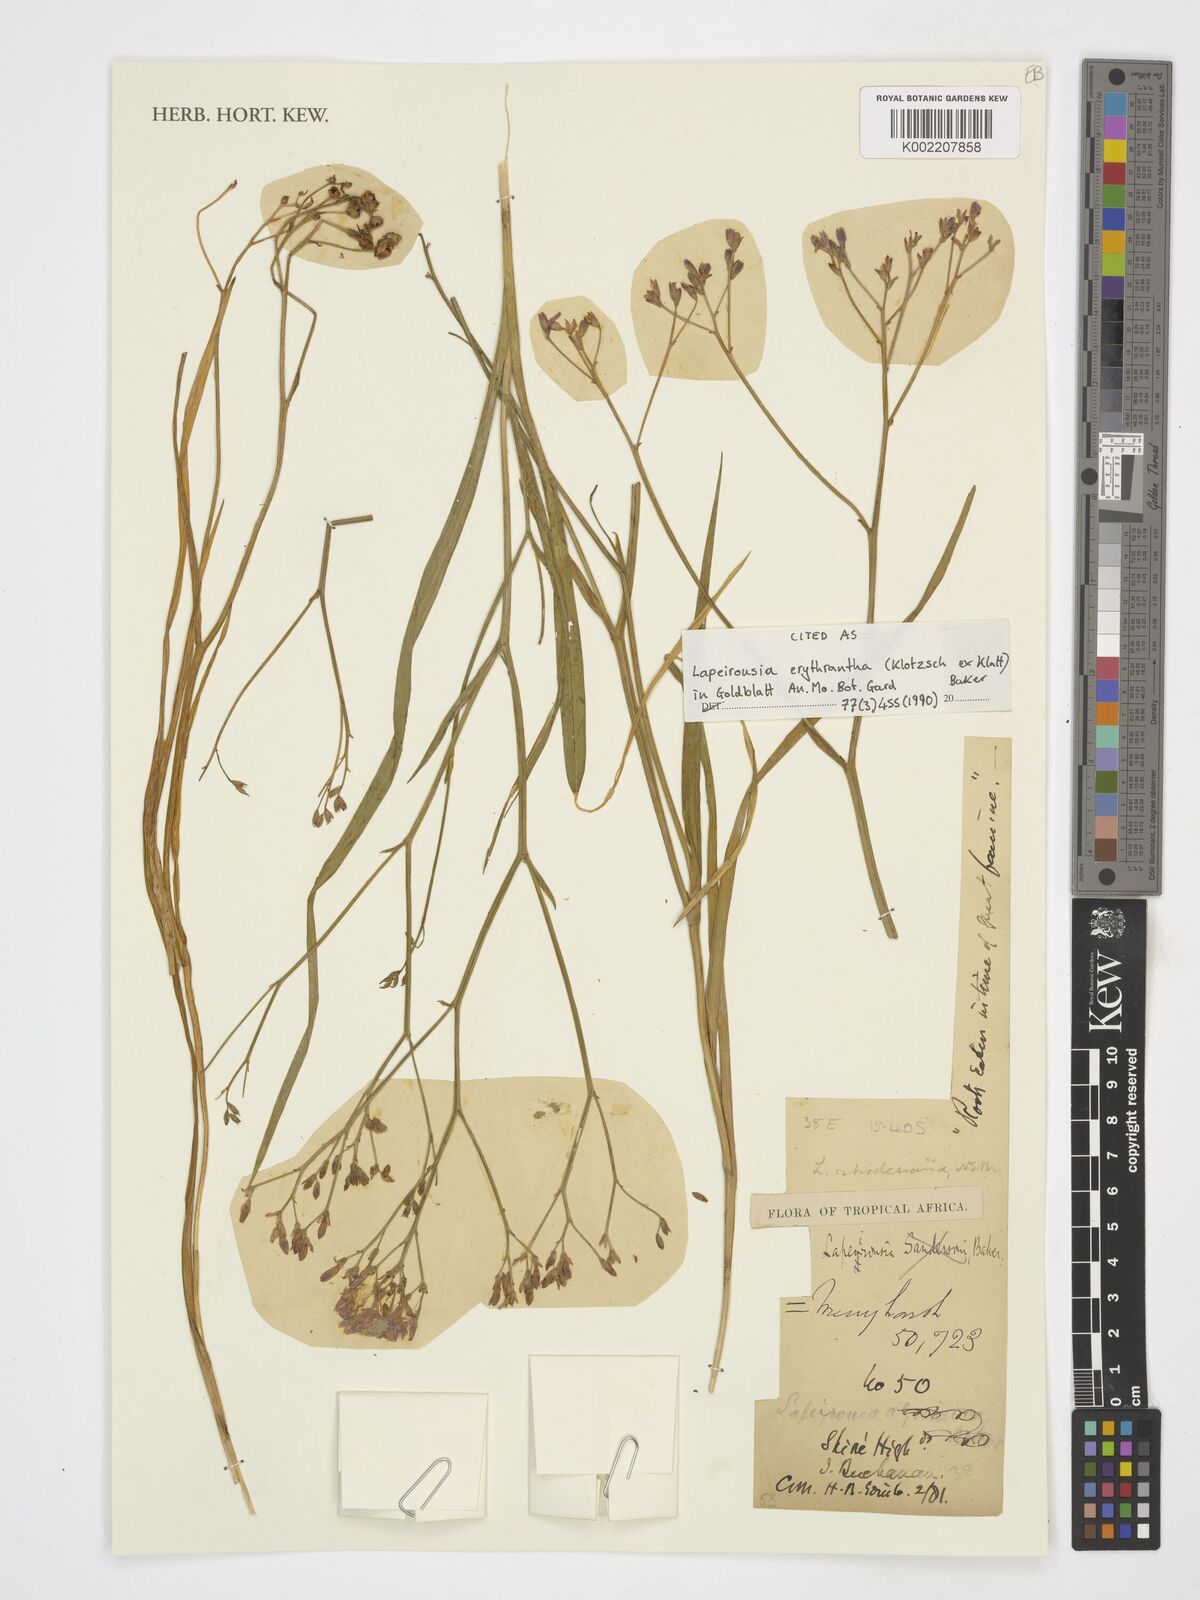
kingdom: Plantae
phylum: Tracheophyta
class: Liliopsida
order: Asparagales
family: Iridaceae
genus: Afrosolen
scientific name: Afrosolen erythranthus
